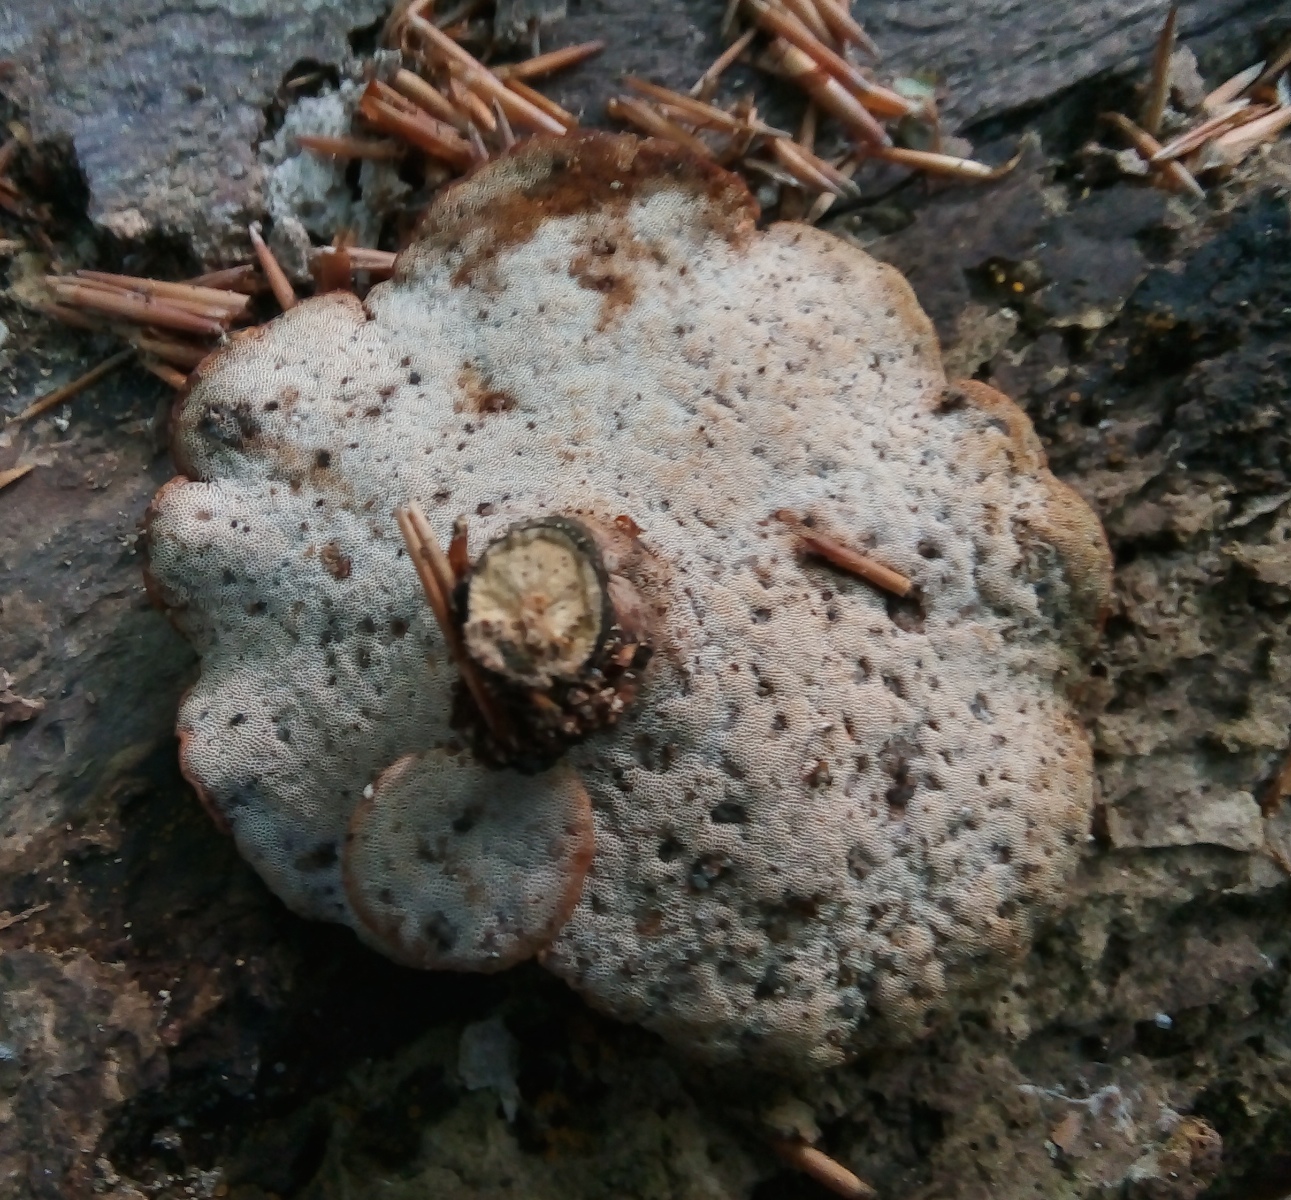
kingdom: Fungi
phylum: Basidiomycota
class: Agaricomycetes
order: Polyporales
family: Polyporaceae
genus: Cerioporus
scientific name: Cerioporus varius
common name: foranderlig stilkporesvamp
